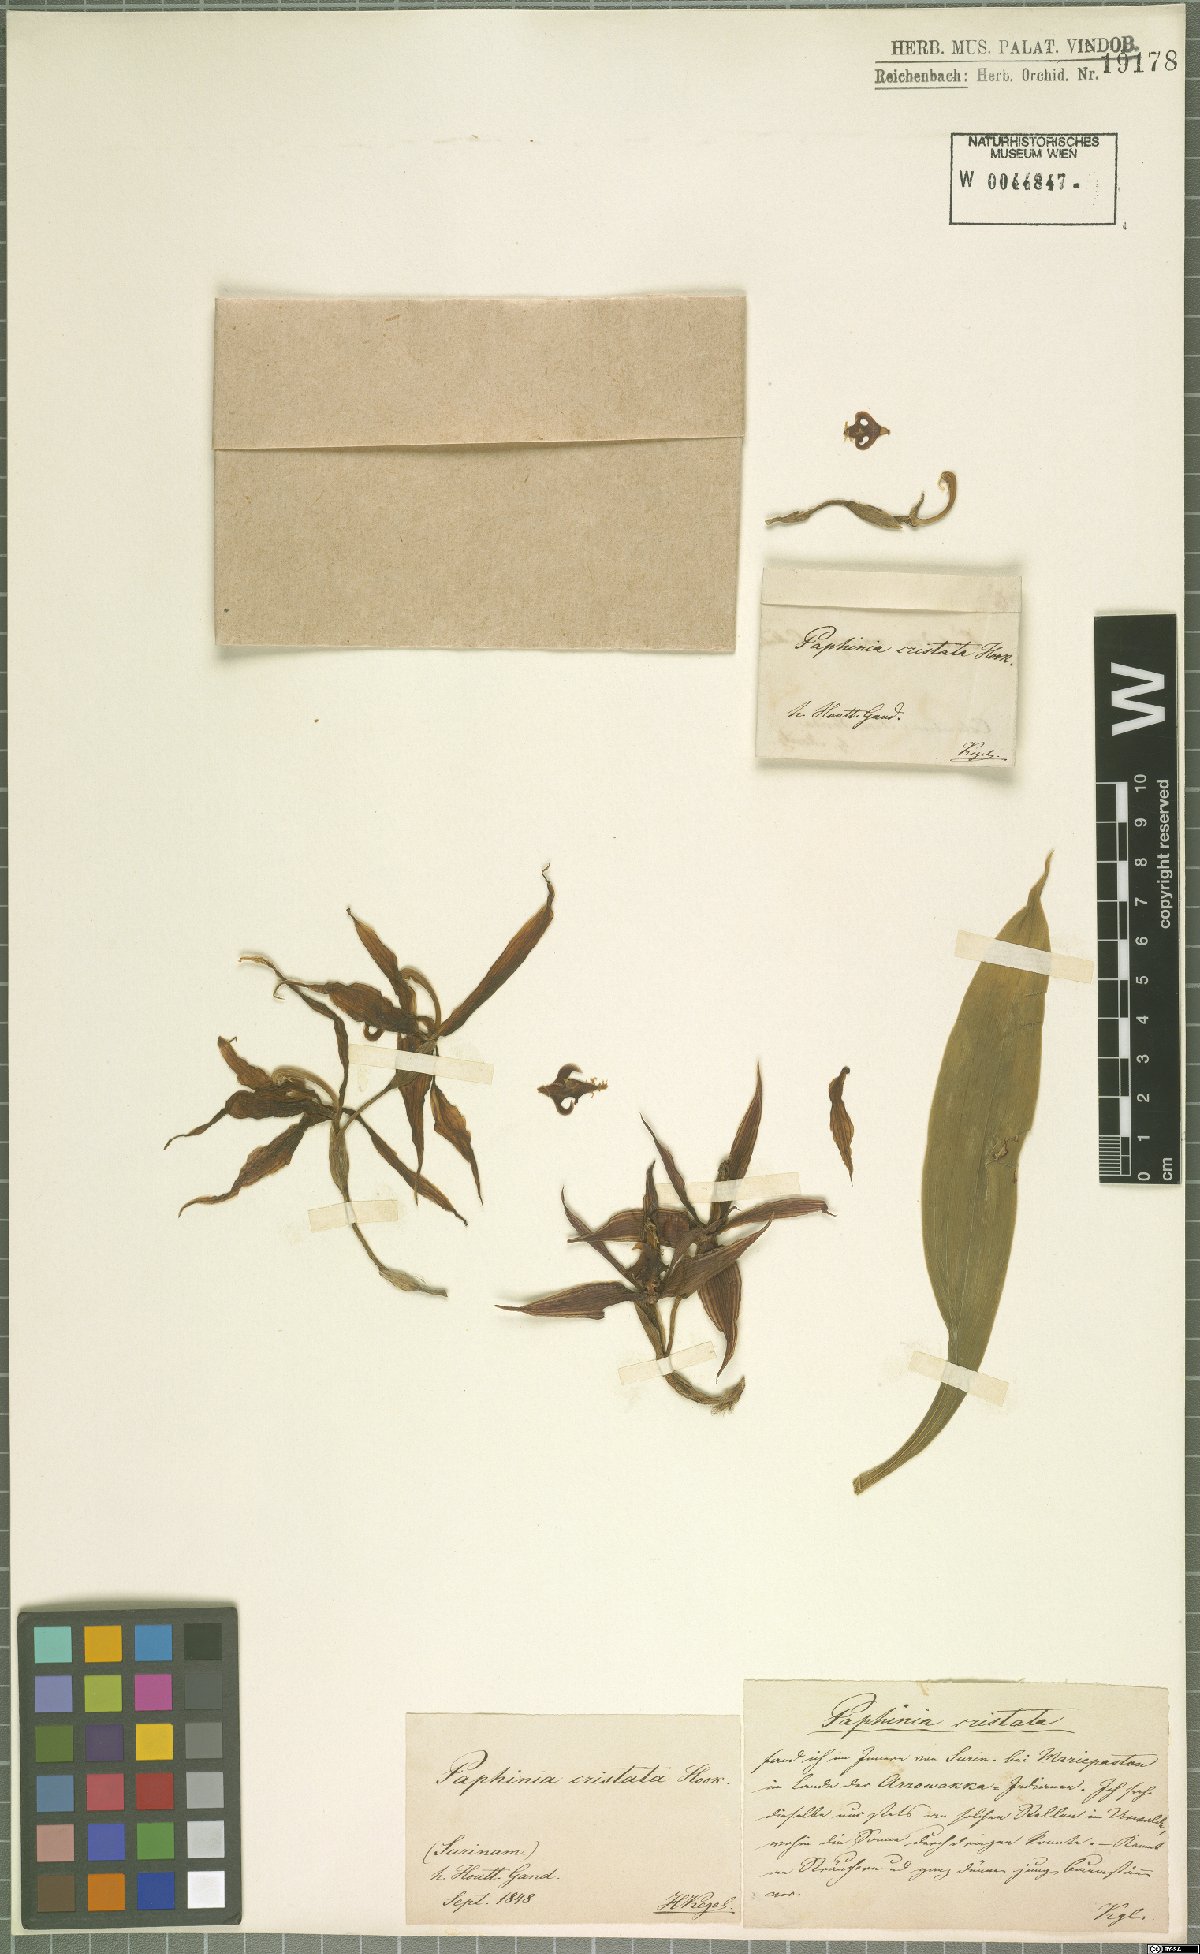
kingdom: Plantae
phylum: Tracheophyta
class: Liliopsida
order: Asparagales
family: Orchidaceae
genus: Paphinia
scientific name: Paphinia cristata
